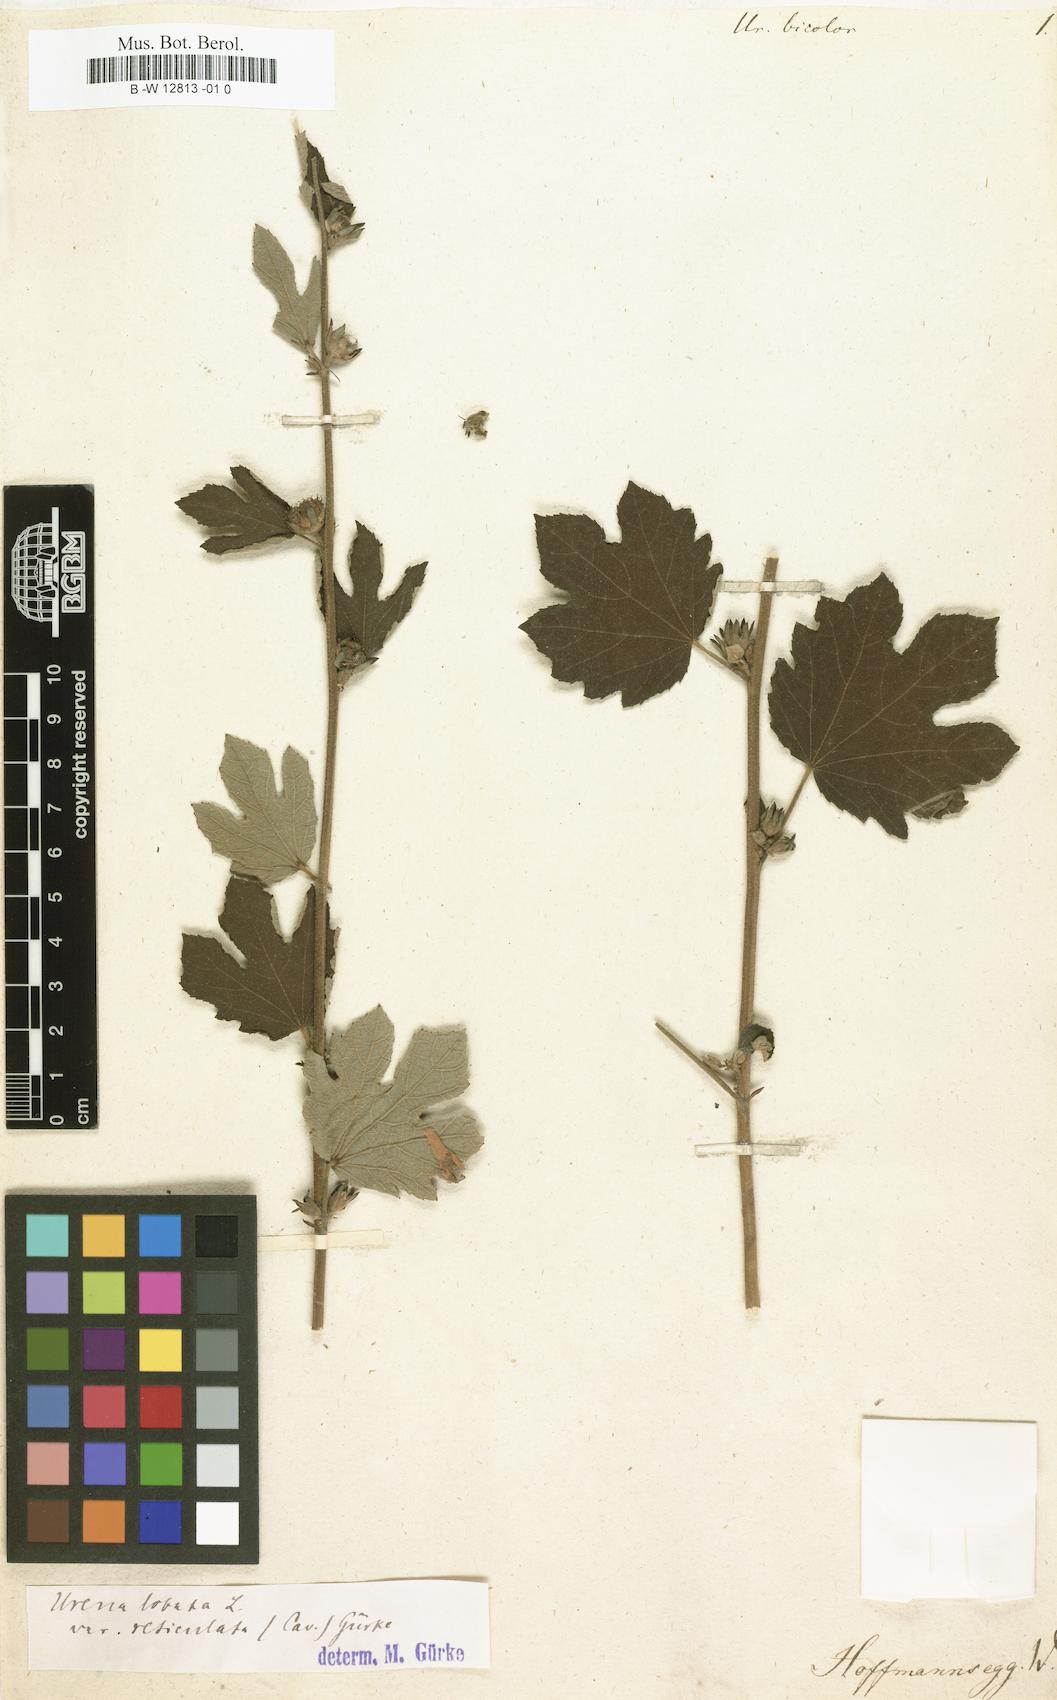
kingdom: Plantae
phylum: Tracheophyta
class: Magnoliopsida
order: Malvales
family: Malvaceae
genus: Urena
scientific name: Urena
